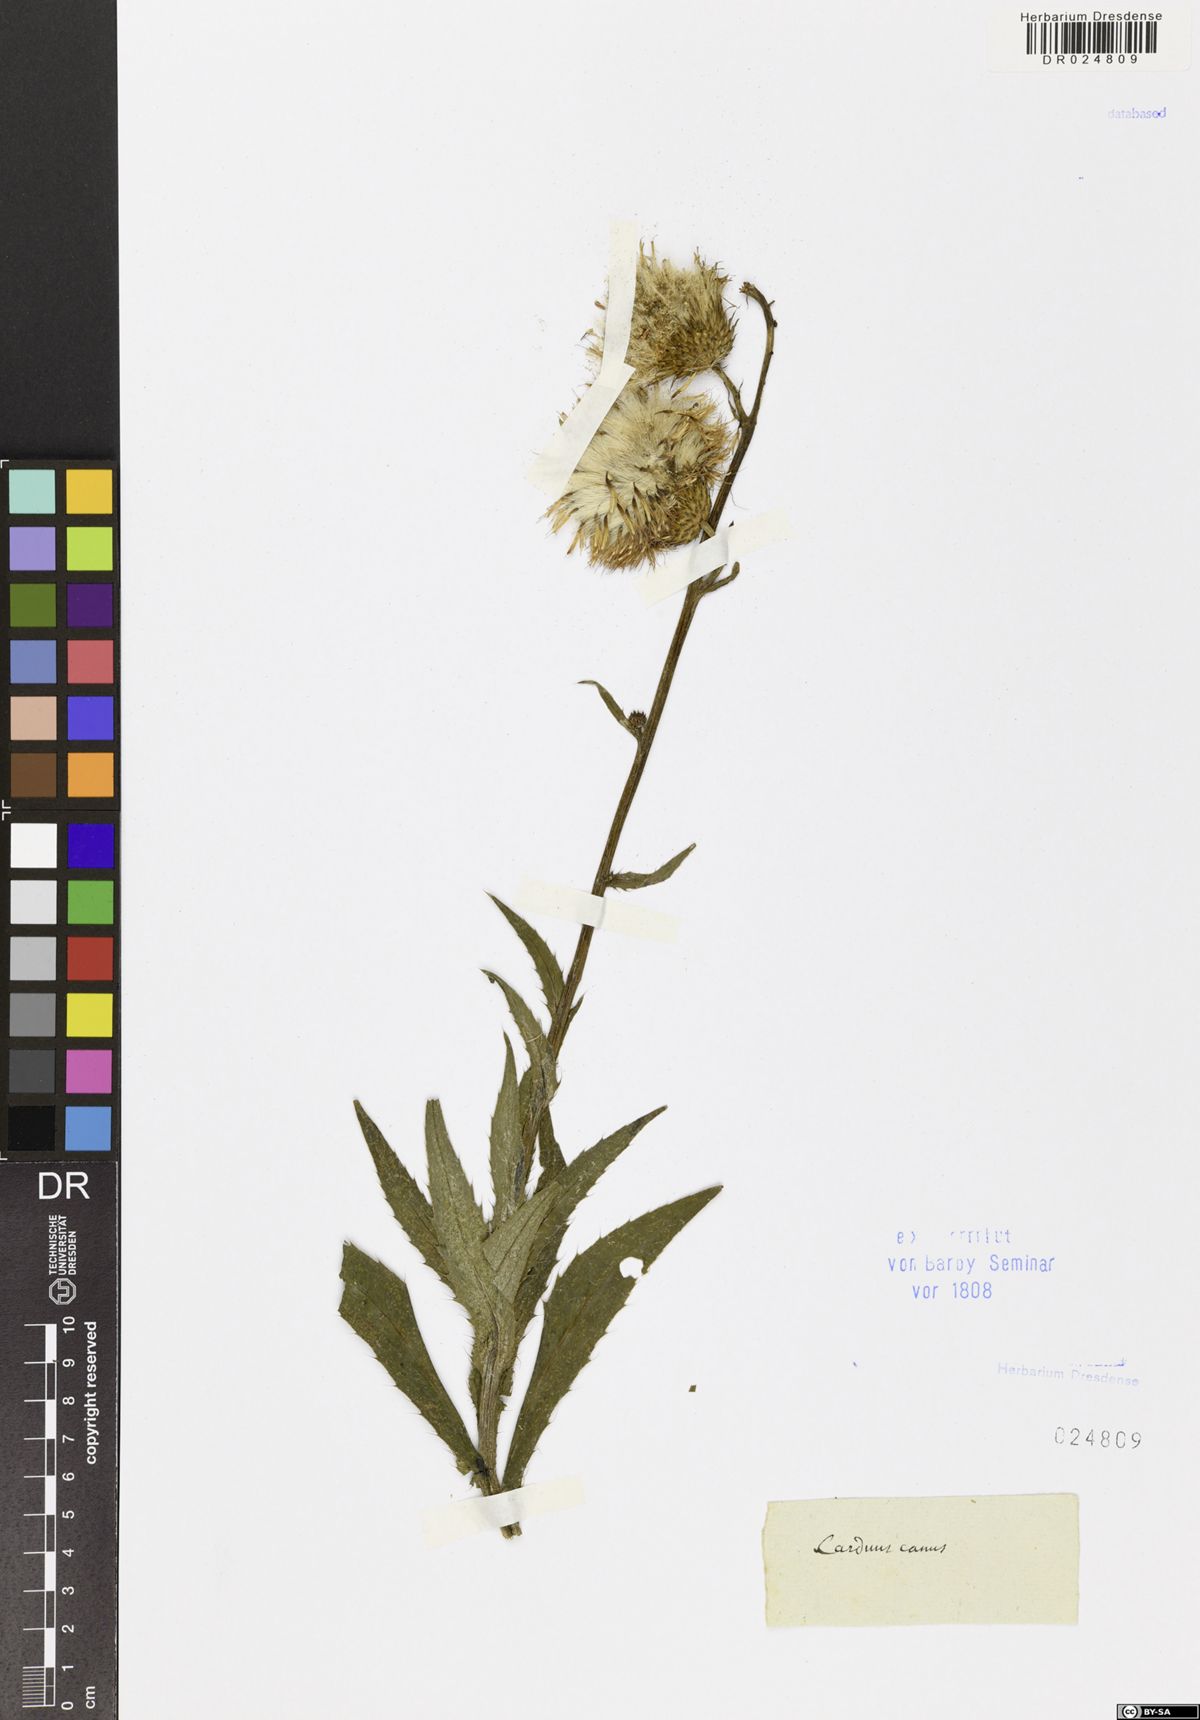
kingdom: Plantae
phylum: Tracheophyta
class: Magnoliopsida
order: Asterales
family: Asteraceae
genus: Cirsium
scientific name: Cirsium canum
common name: Queen anne's thistle
